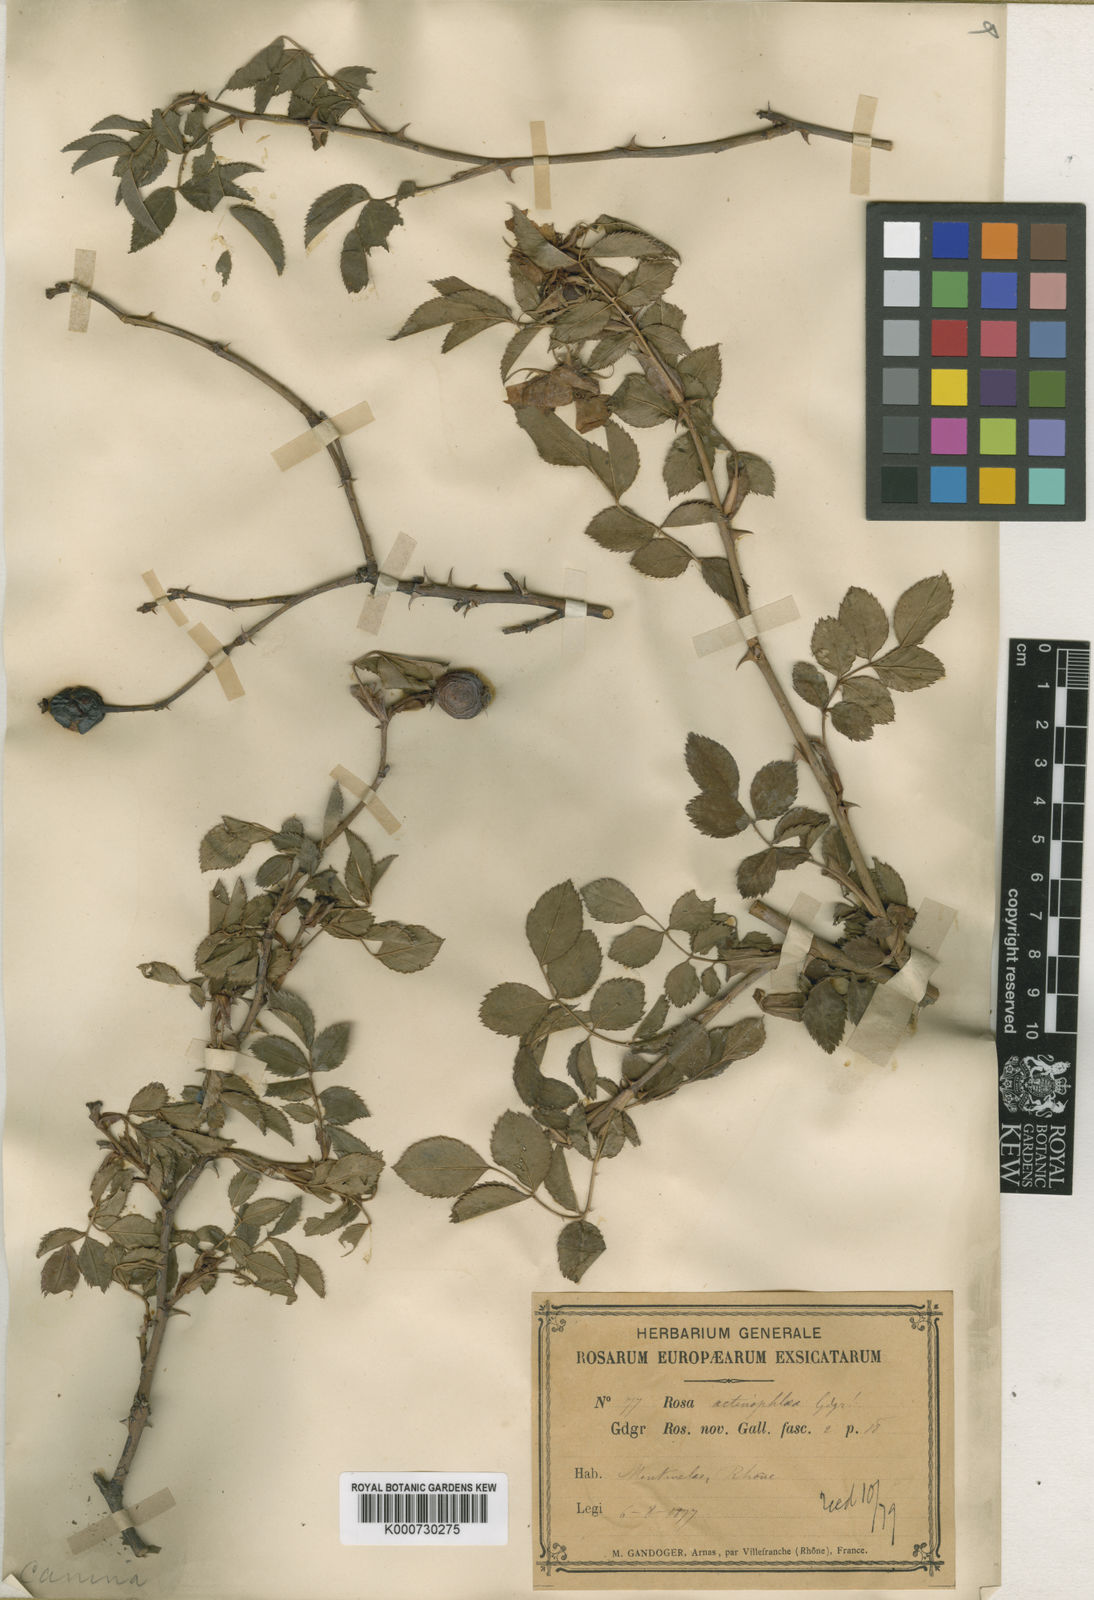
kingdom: Plantae
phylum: Tracheophyta
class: Magnoliopsida
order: Rosales
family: Rosaceae
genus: Rosa
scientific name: Rosa canina
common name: Dog rose
